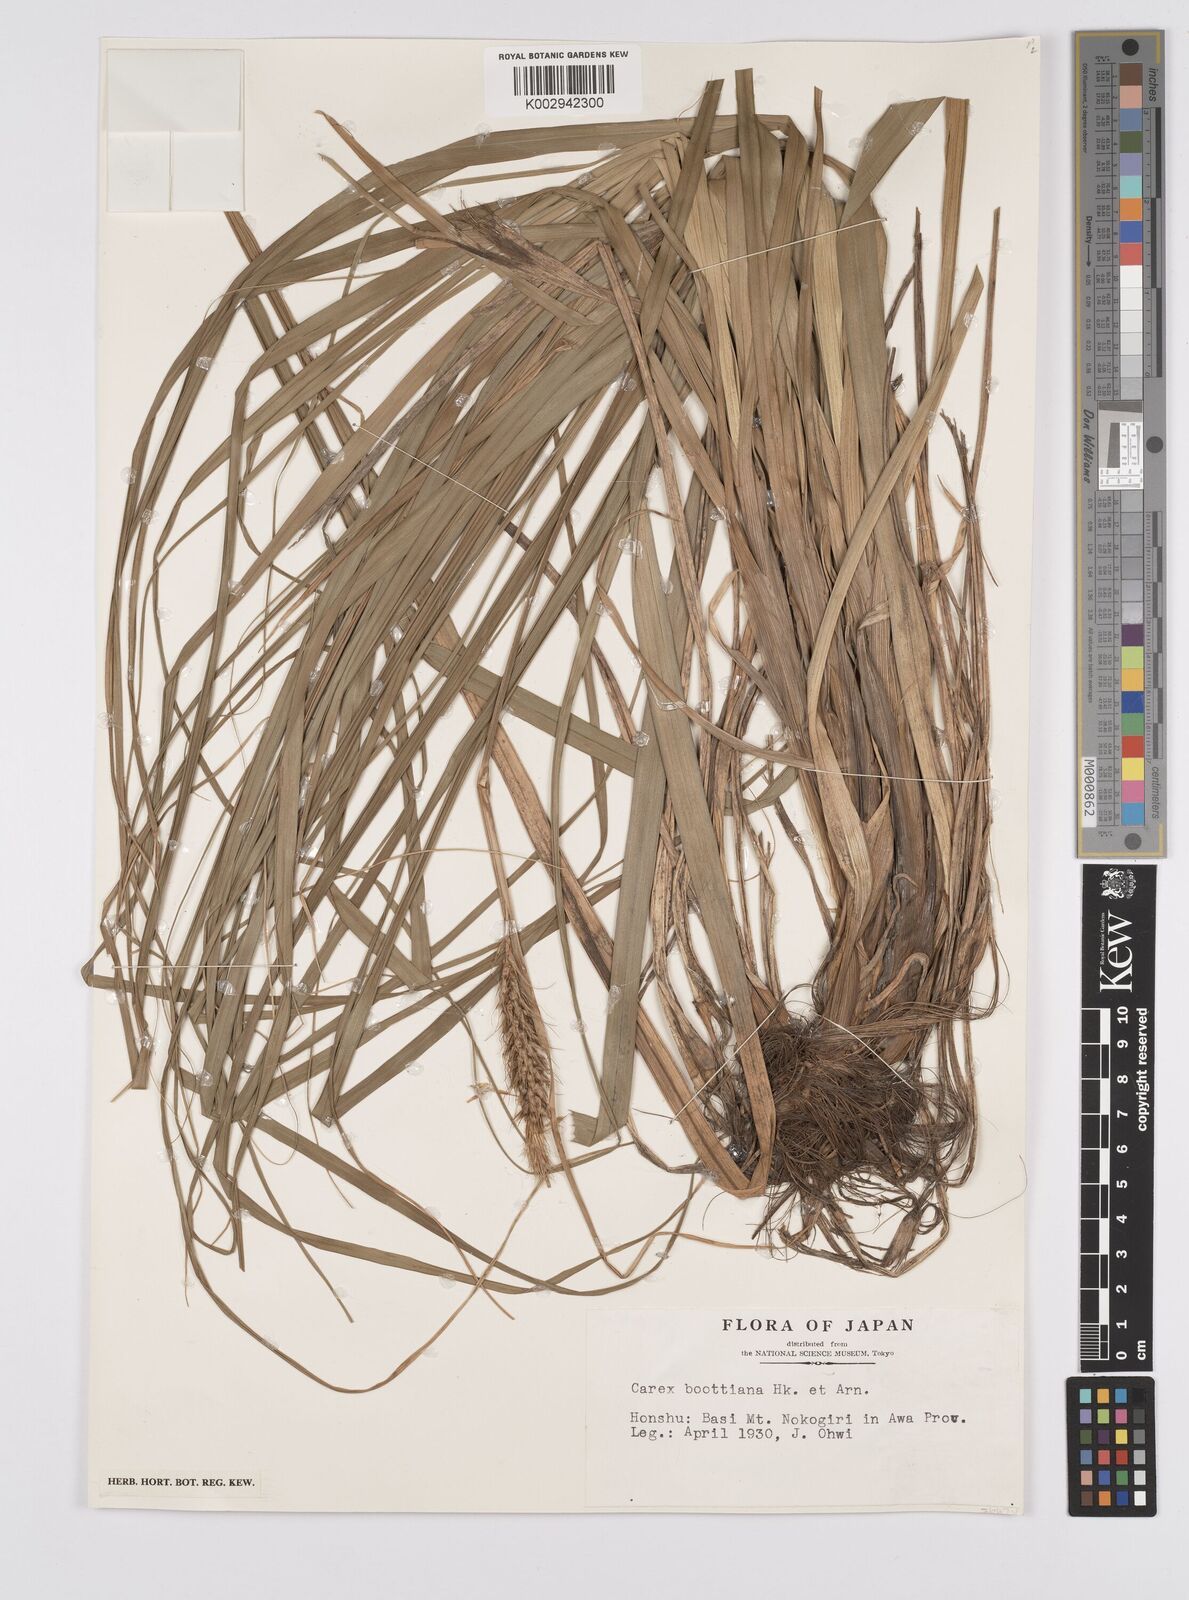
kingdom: Plantae
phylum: Tracheophyta
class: Liliopsida
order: Poales
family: Cyperaceae
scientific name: Cyperaceae
